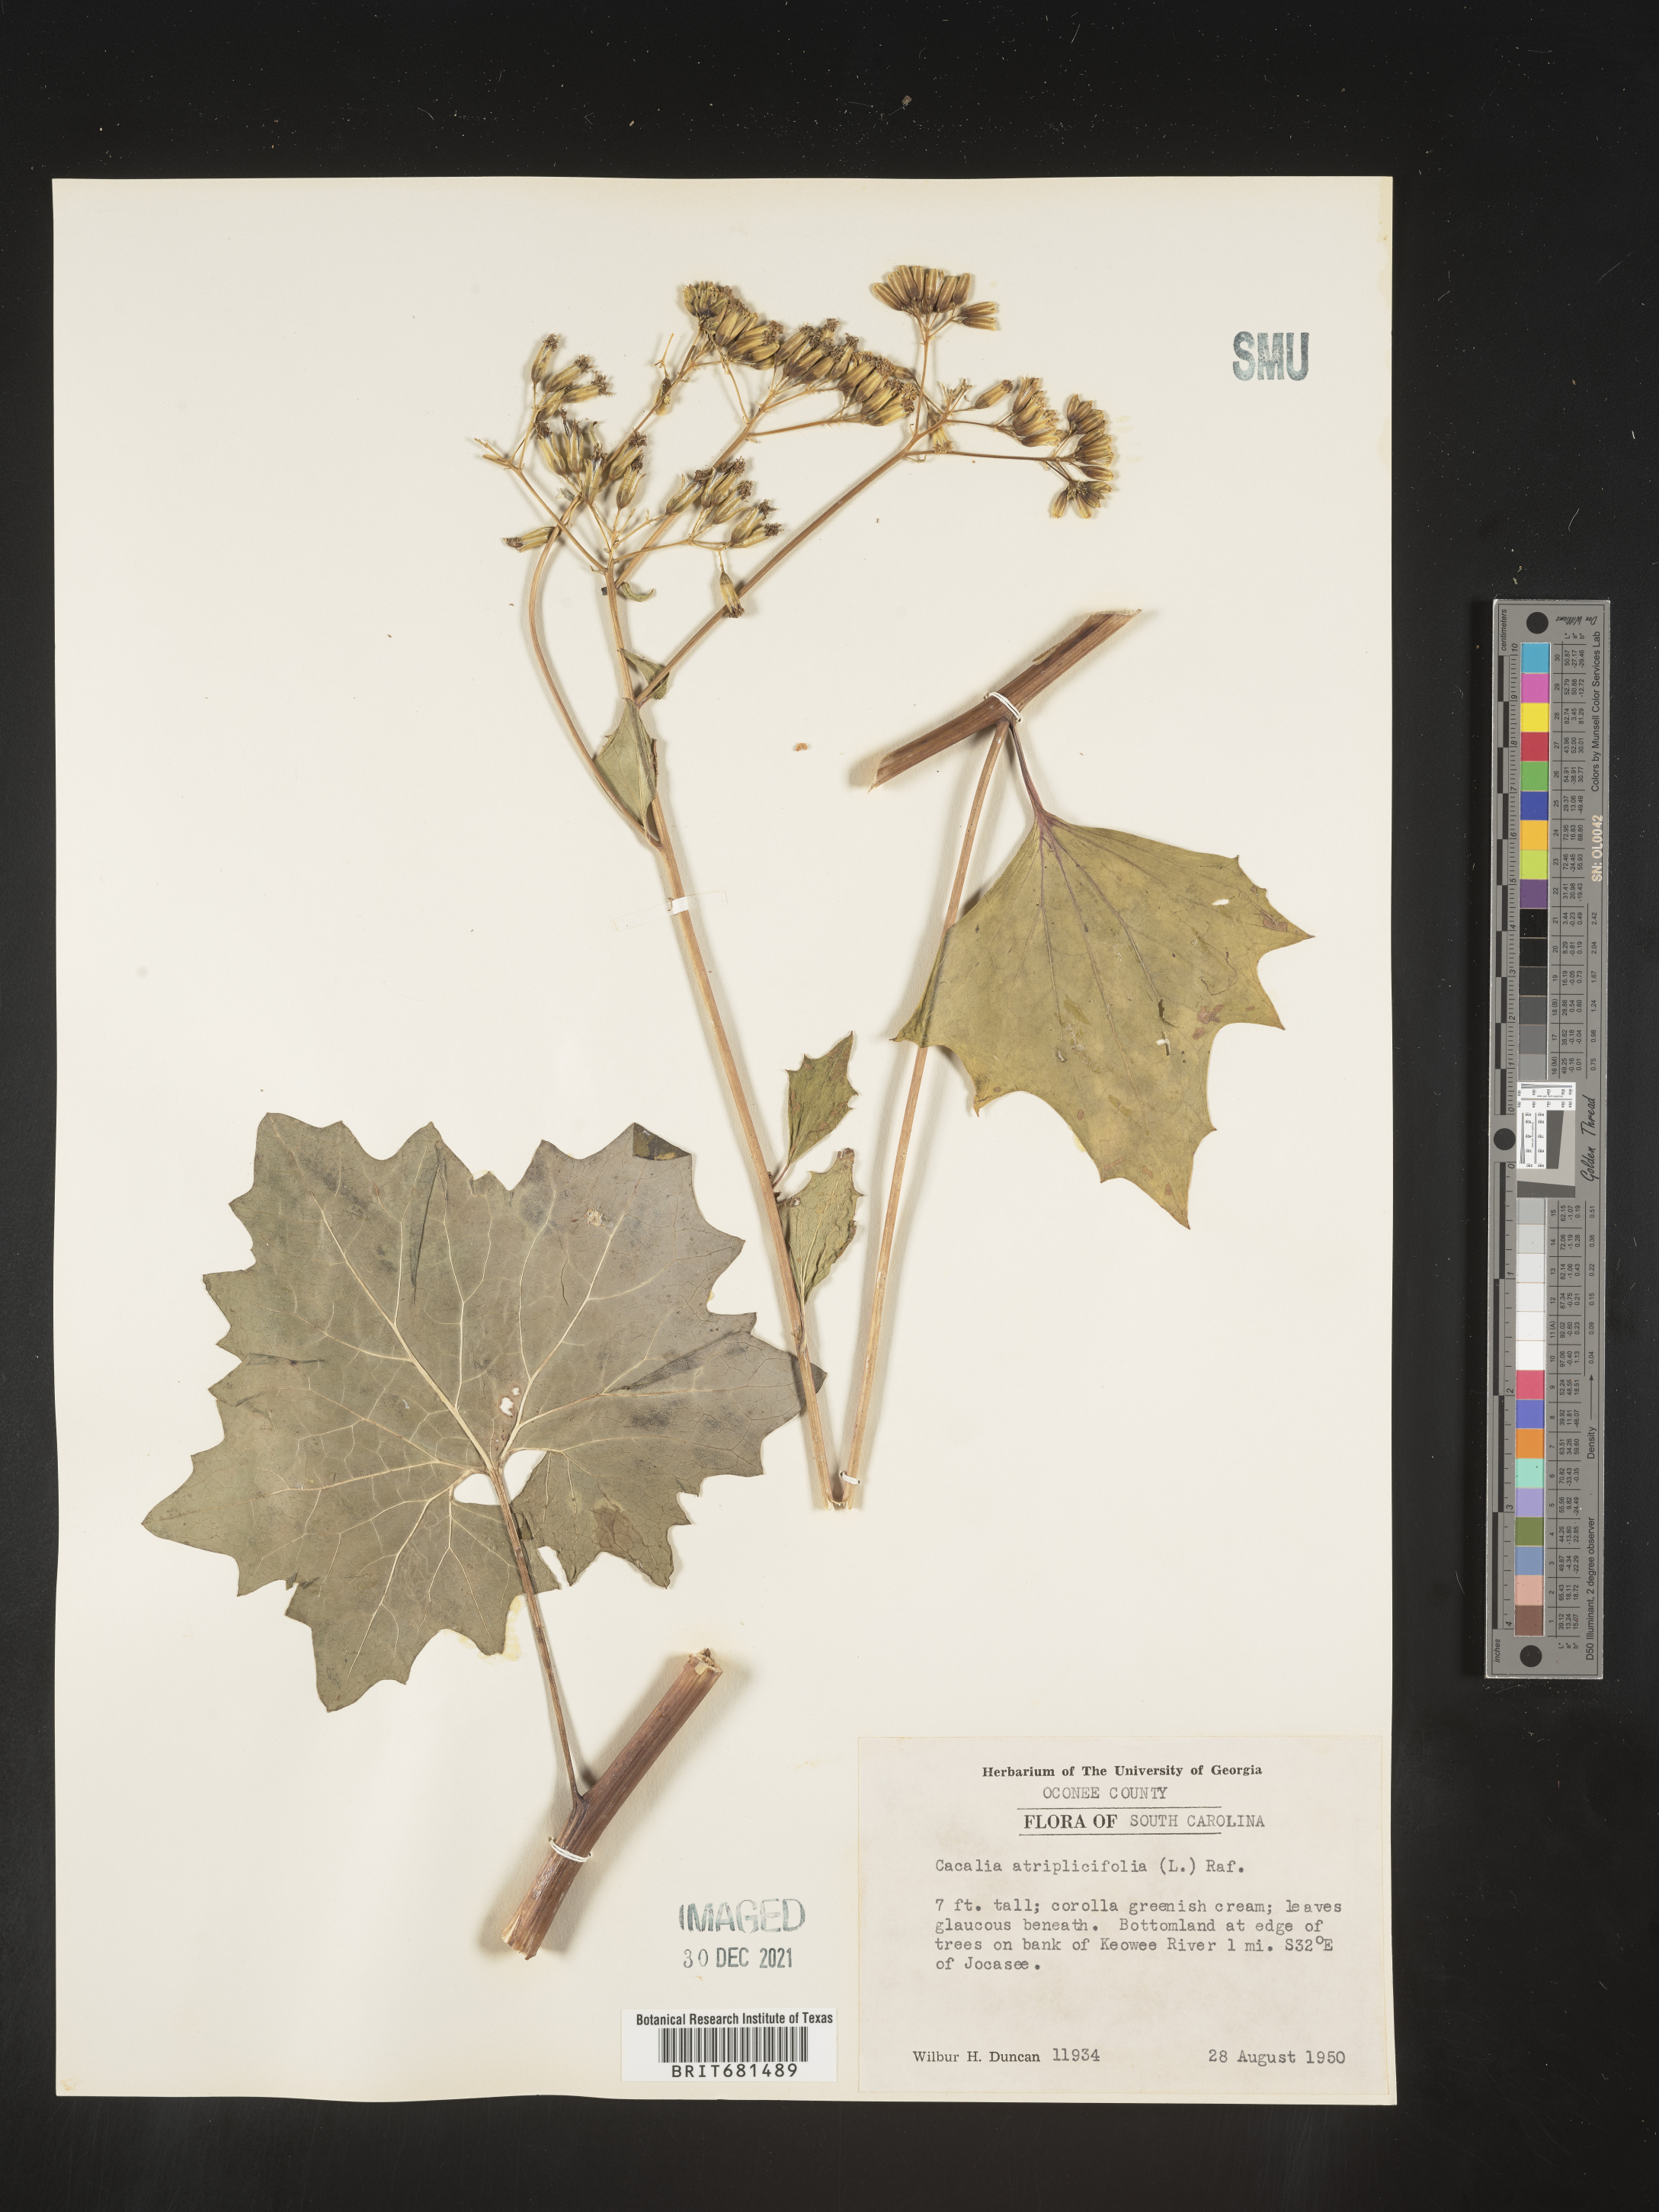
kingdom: Plantae
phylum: Tracheophyta
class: Magnoliopsida
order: Asterales
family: Asteraceae
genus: Arnoglossum
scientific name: Arnoglossum atriplicifolium
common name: Pale indian-plantain
